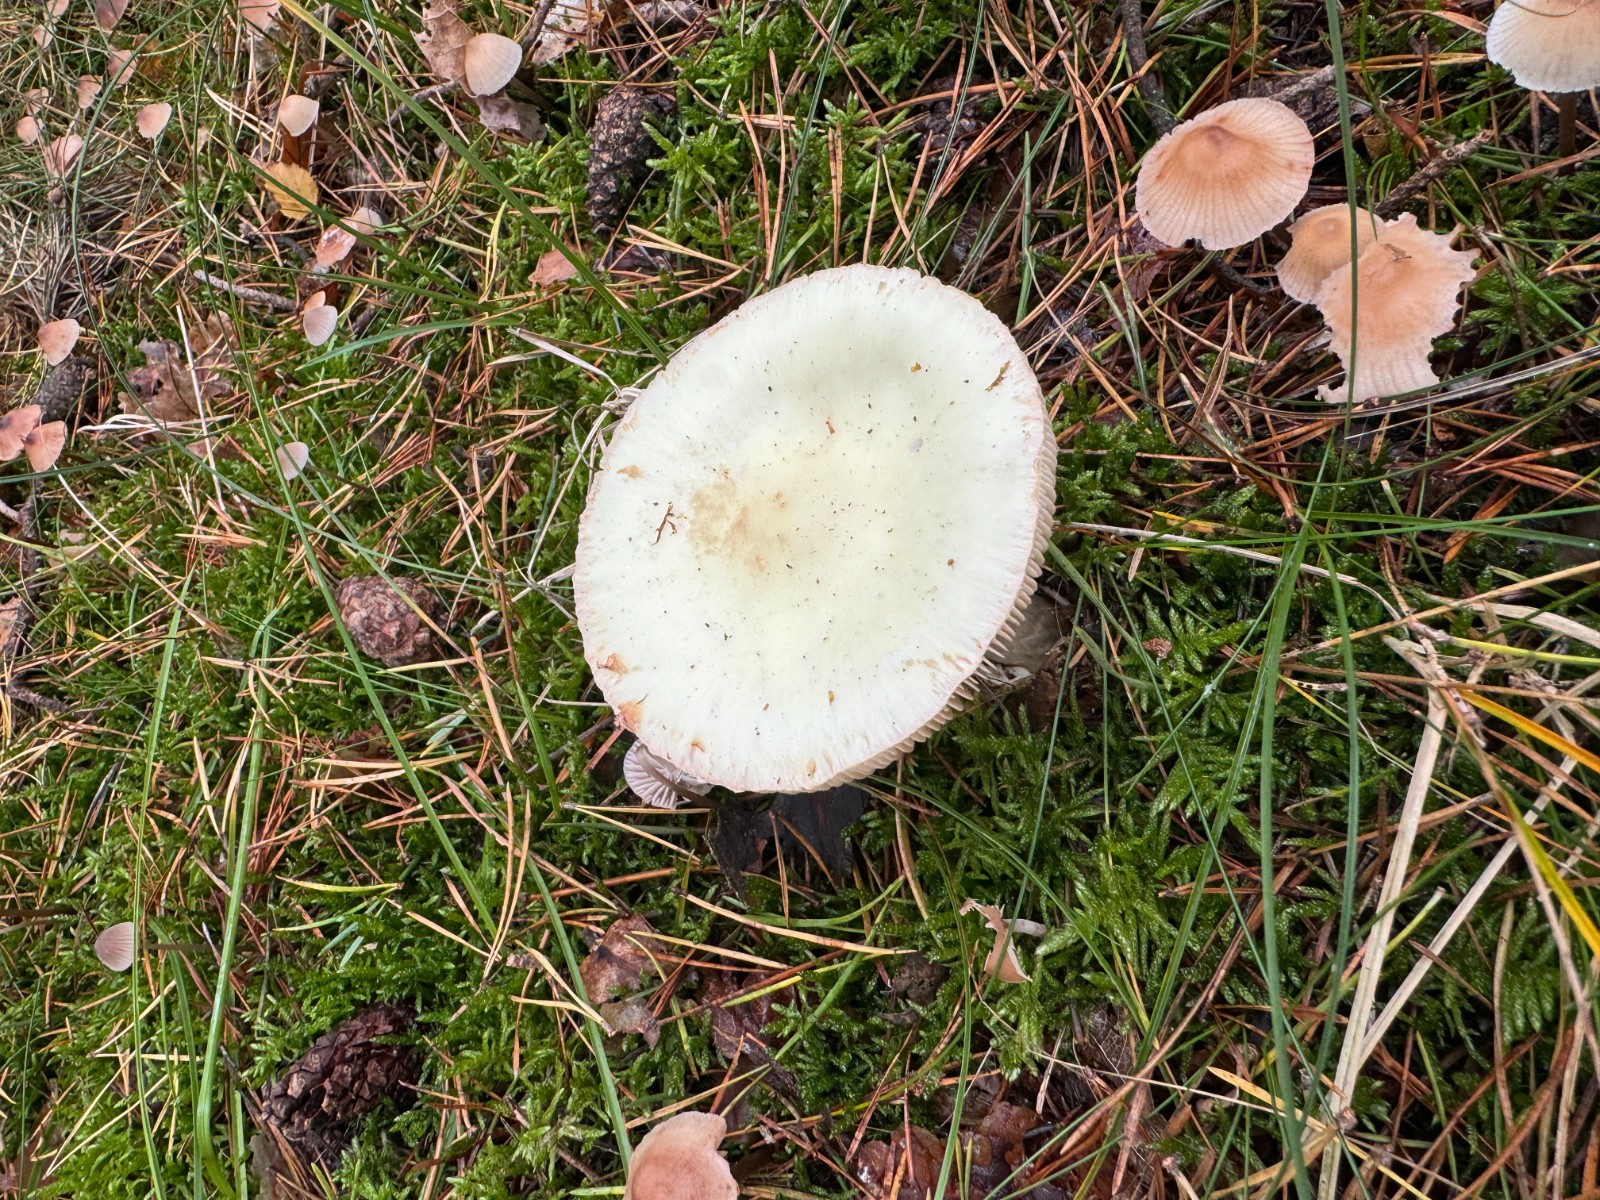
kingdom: Fungi
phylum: Basidiomycota
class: Agaricomycetes
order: Agaricales
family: Amanitaceae
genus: Amanita
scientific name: Amanita citrina
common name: kugleknoldet fluesvamp
